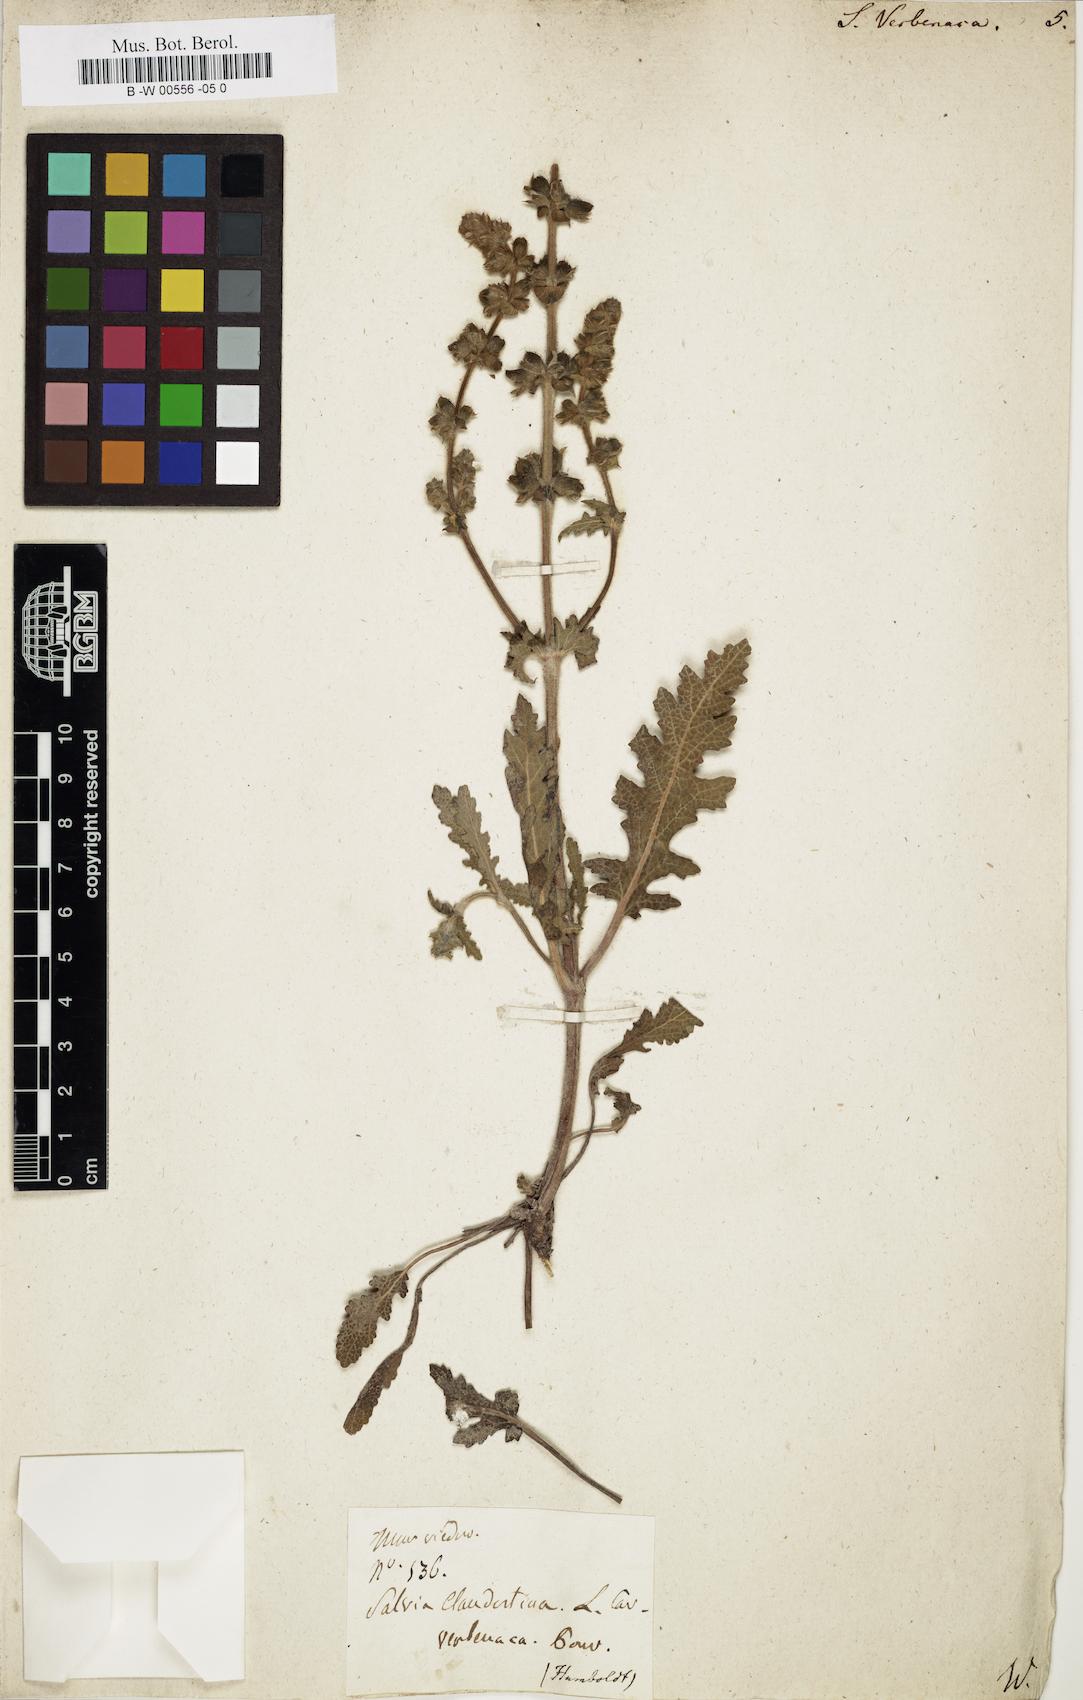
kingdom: Plantae
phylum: Tracheophyta
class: Magnoliopsida
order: Lamiales
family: Lamiaceae
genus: Salvia
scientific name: Salvia verbenaca
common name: Wild clary
